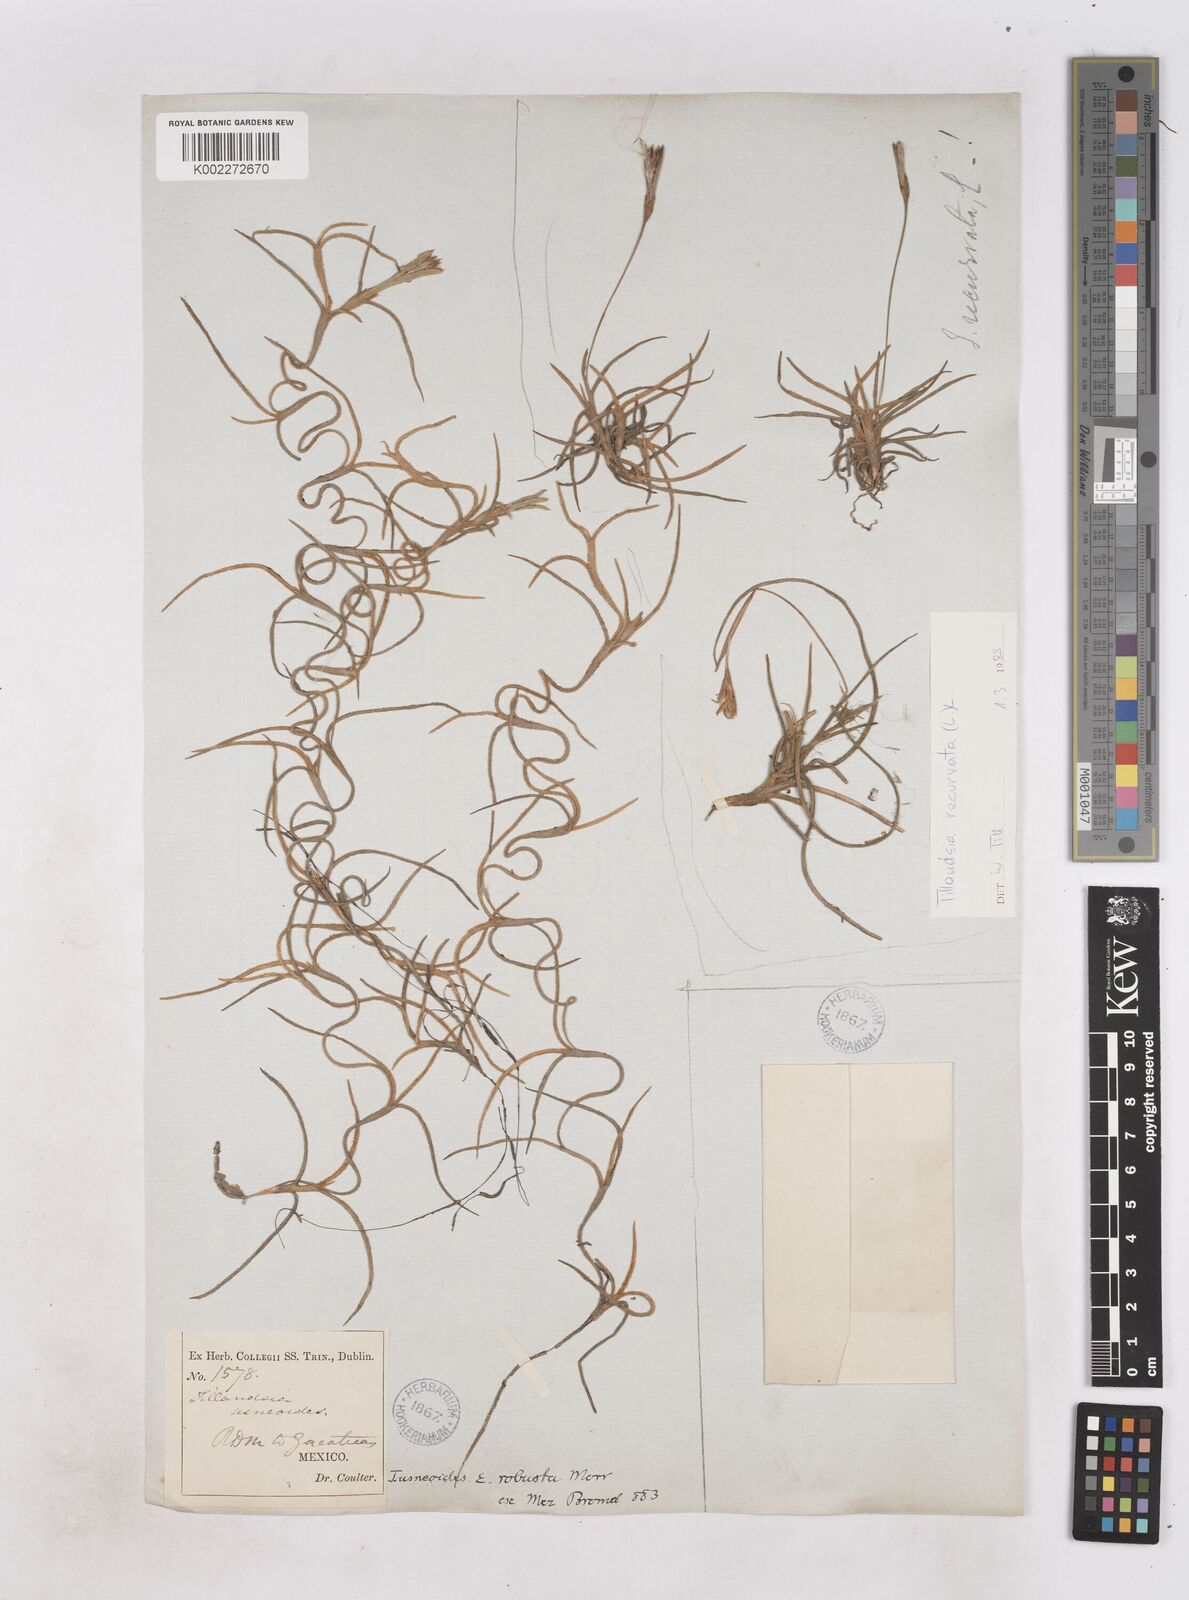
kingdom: Plantae
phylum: Tracheophyta
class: Liliopsida
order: Poales
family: Bromeliaceae
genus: Tillandsia
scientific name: Tillandsia usneoides
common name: Spanish moss
